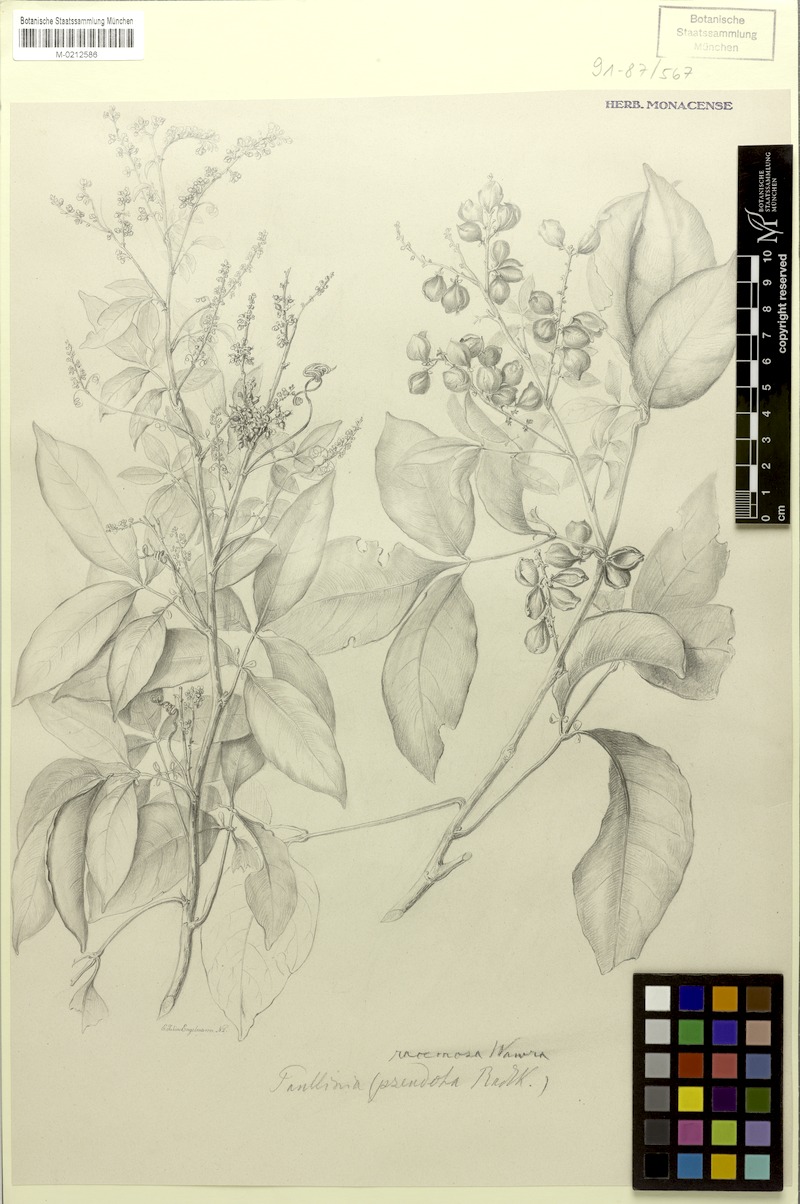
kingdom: Plantae
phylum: Tracheophyta
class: Magnoliopsida
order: Sapindales
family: Sapindaceae
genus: Paullinia
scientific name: Paullinia racemosa
